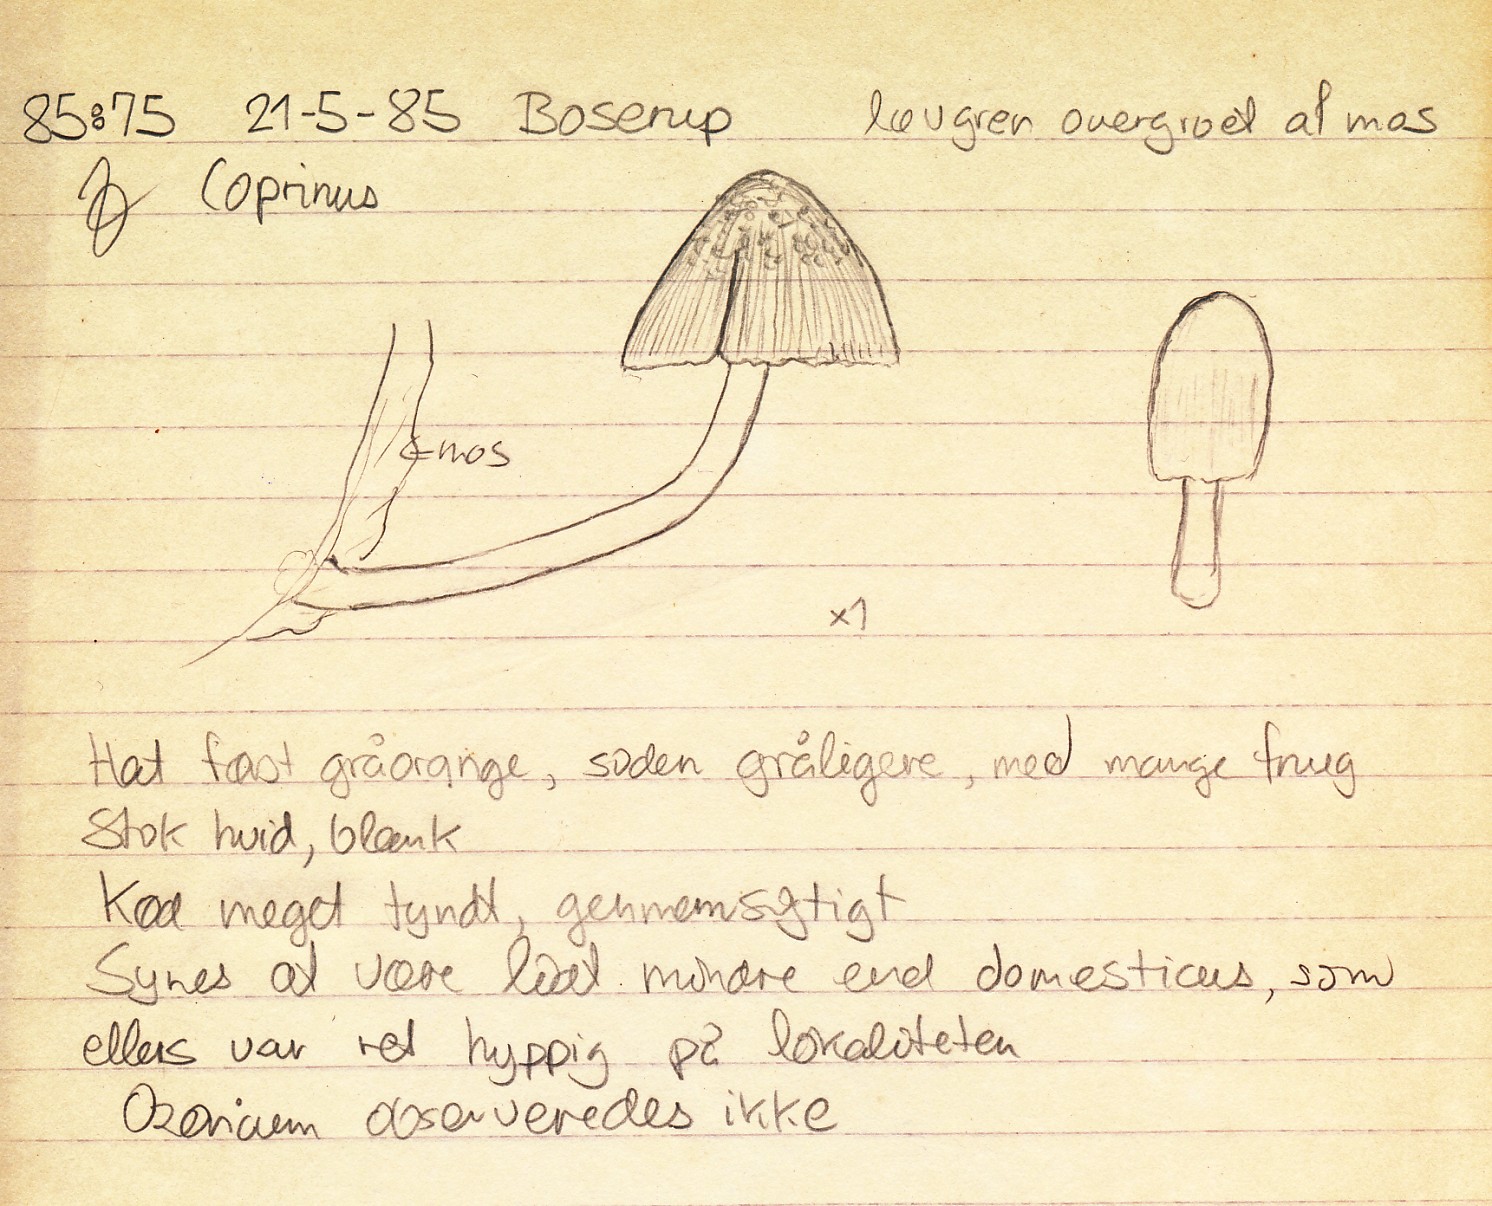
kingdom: Fungi
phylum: Basidiomycota
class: Agaricomycetes
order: Agaricales
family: Psathyrellaceae
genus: Coprinellus
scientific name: Coprinellus radians
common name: grynet blækhat
